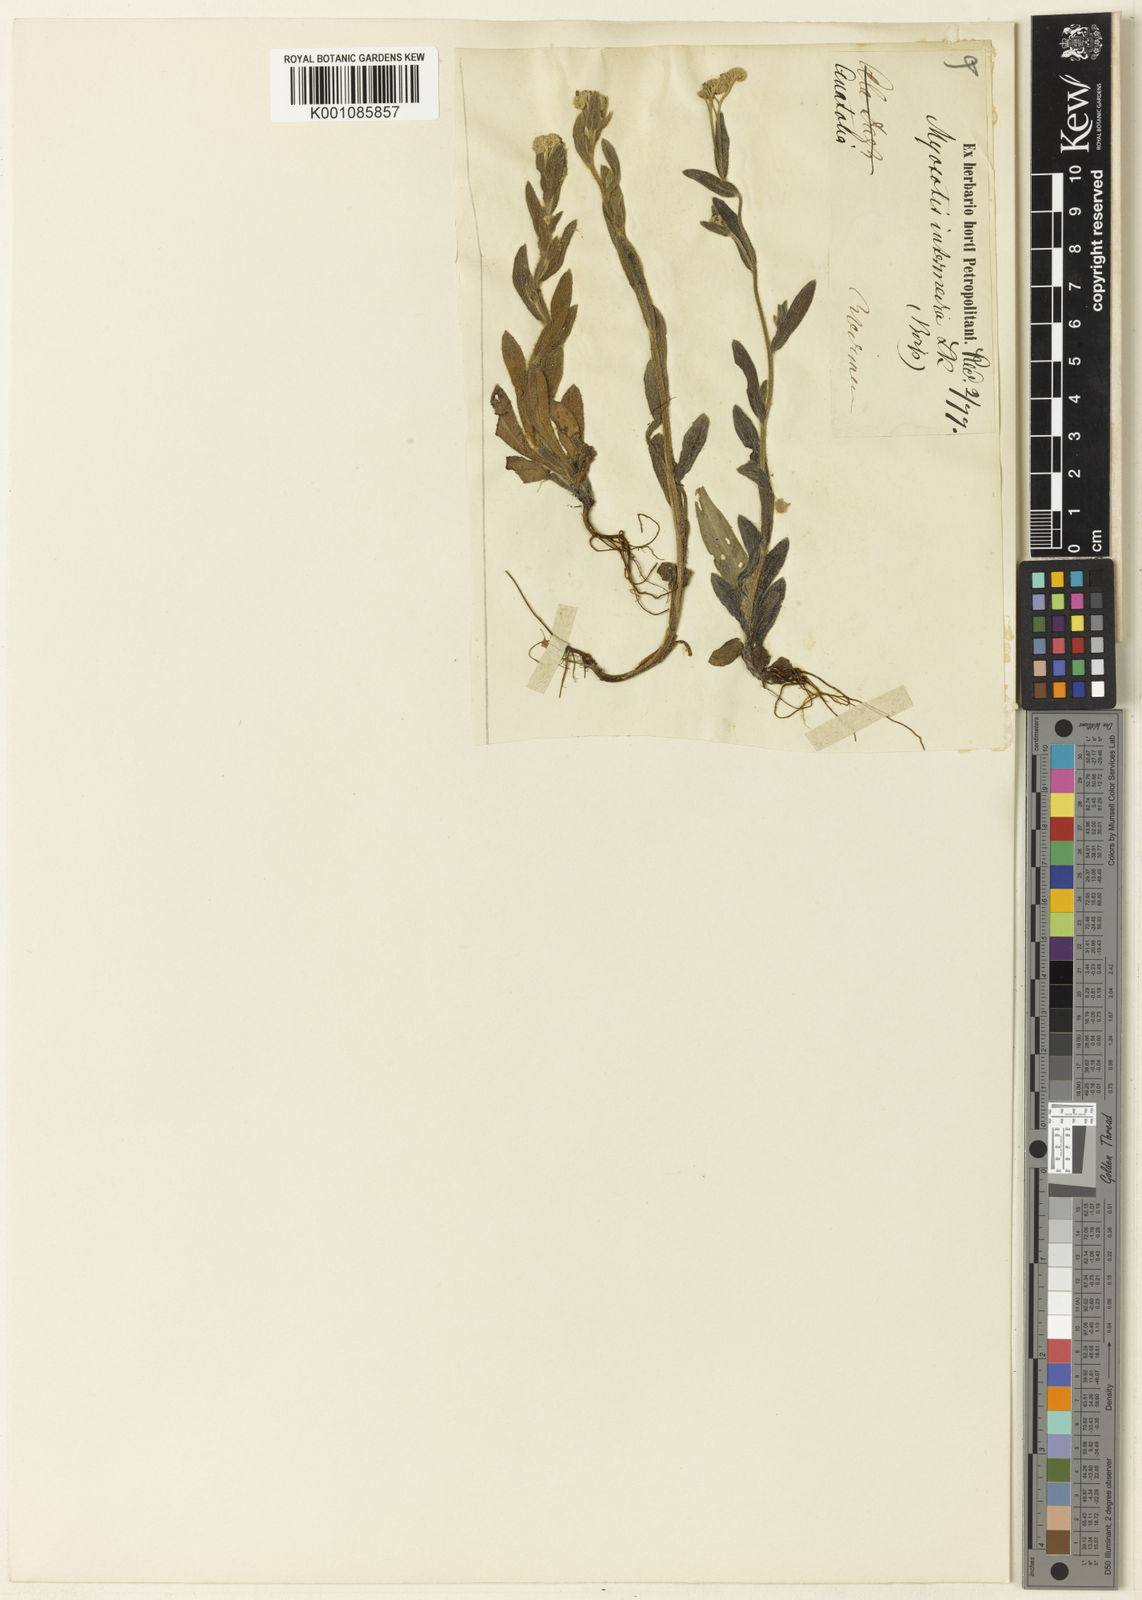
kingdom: Plantae
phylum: Tracheophyta
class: Magnoliopsida
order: Boraginales
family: Boraginaceae
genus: Myosotis
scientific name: Myosotis arvensis
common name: Field forget-me-not
